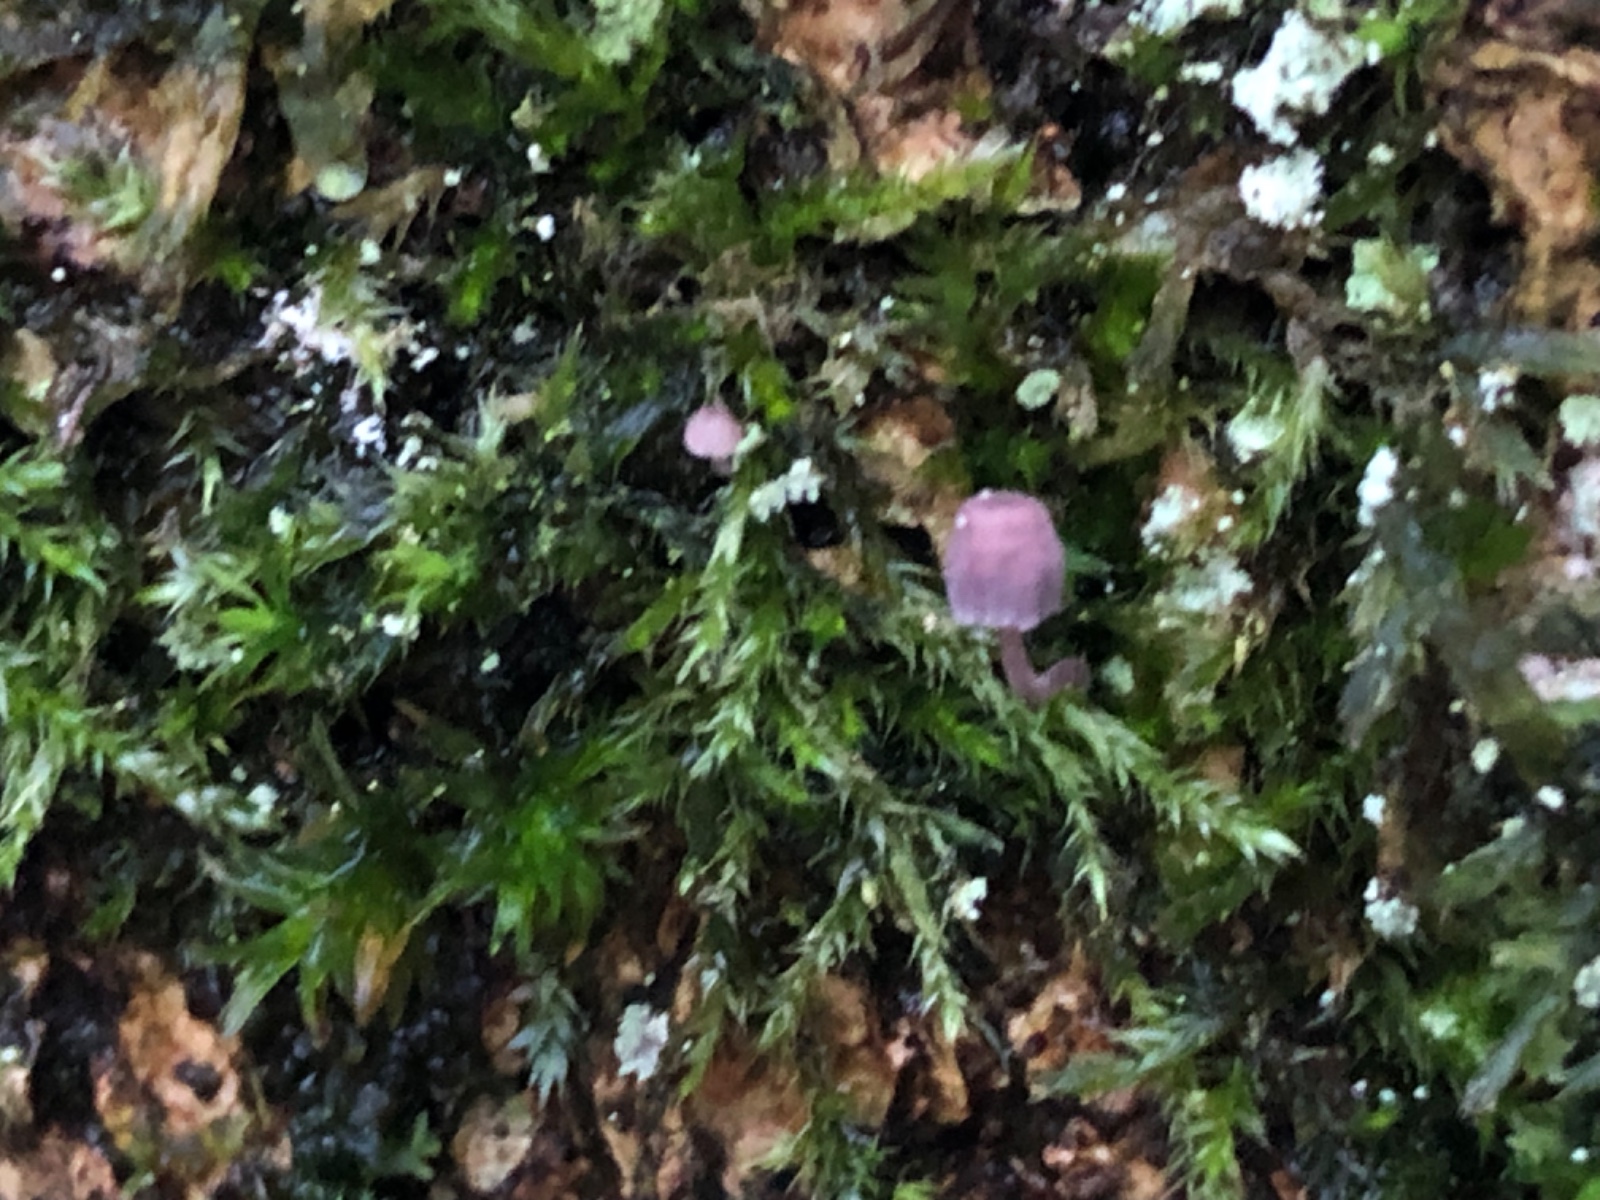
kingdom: Fungi
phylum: Basidiomycota
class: Agaricomycetes
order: Agaricales
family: Mycenaceae
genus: Mycena
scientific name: Mycena meliigena
